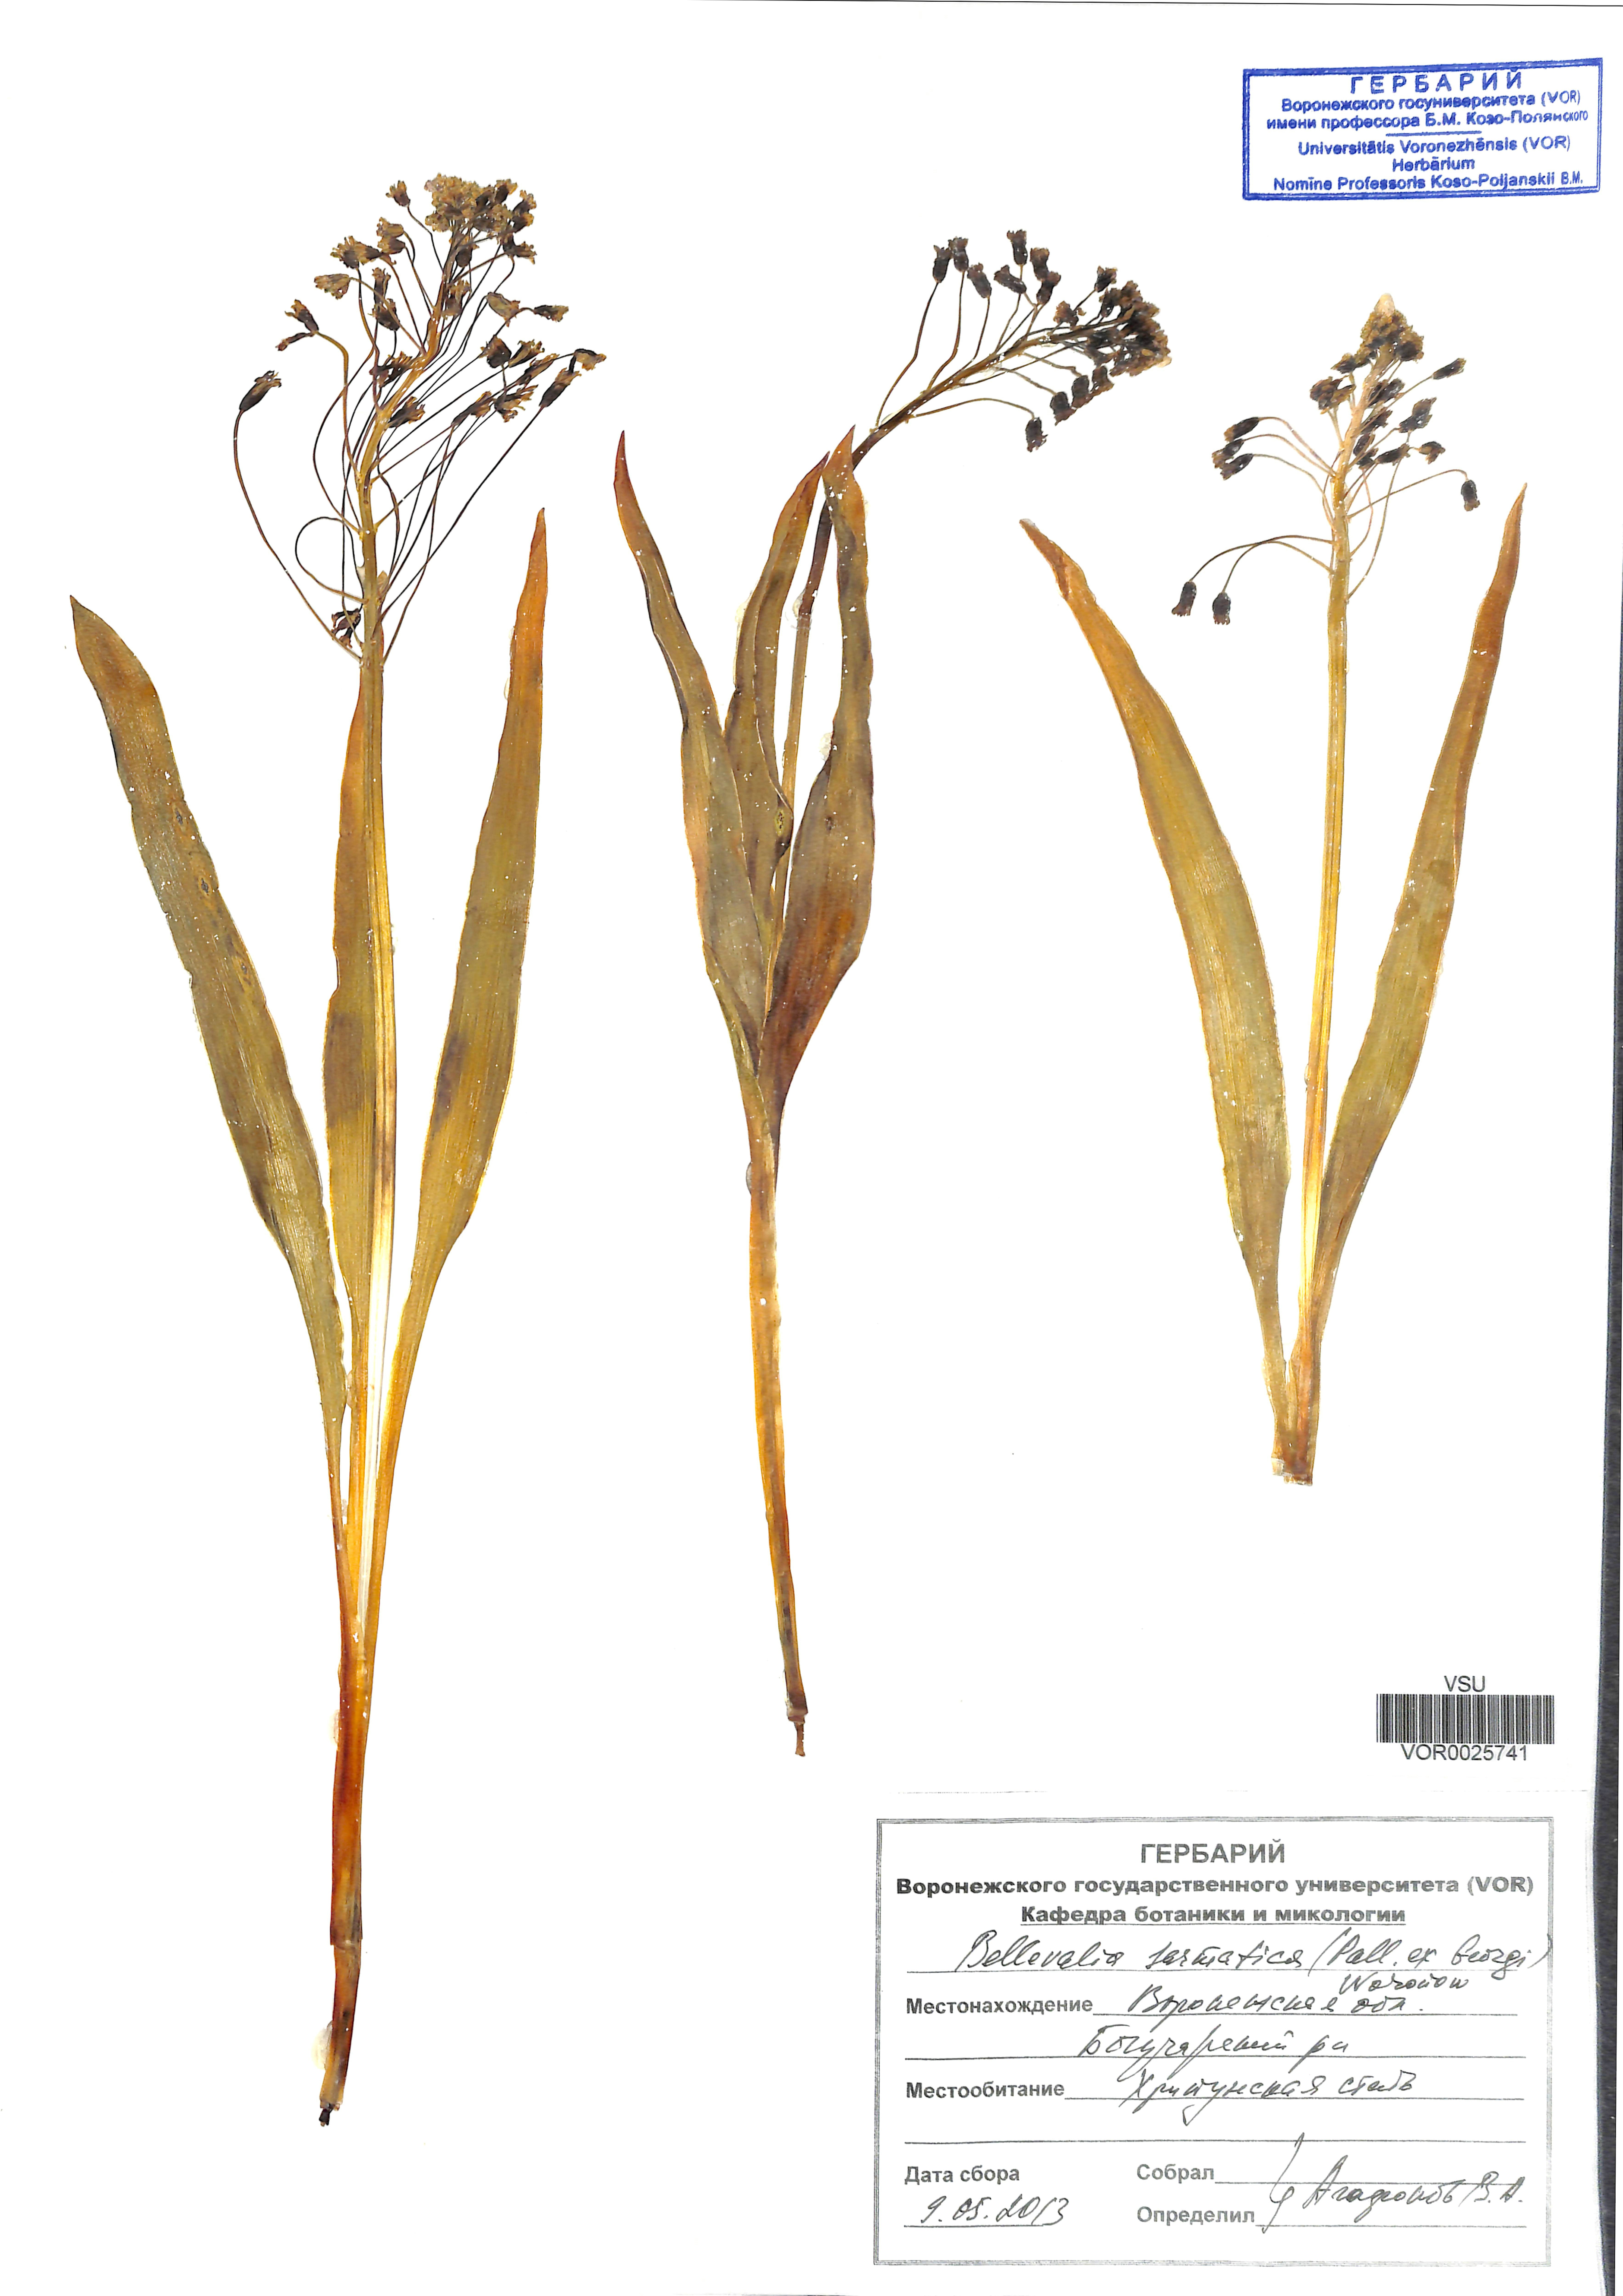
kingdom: Plantae
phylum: Tracheophyta
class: Liliopsida
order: Asparagales
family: Asparagaceae
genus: Bellevalia
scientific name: Bellevalia speciosa
